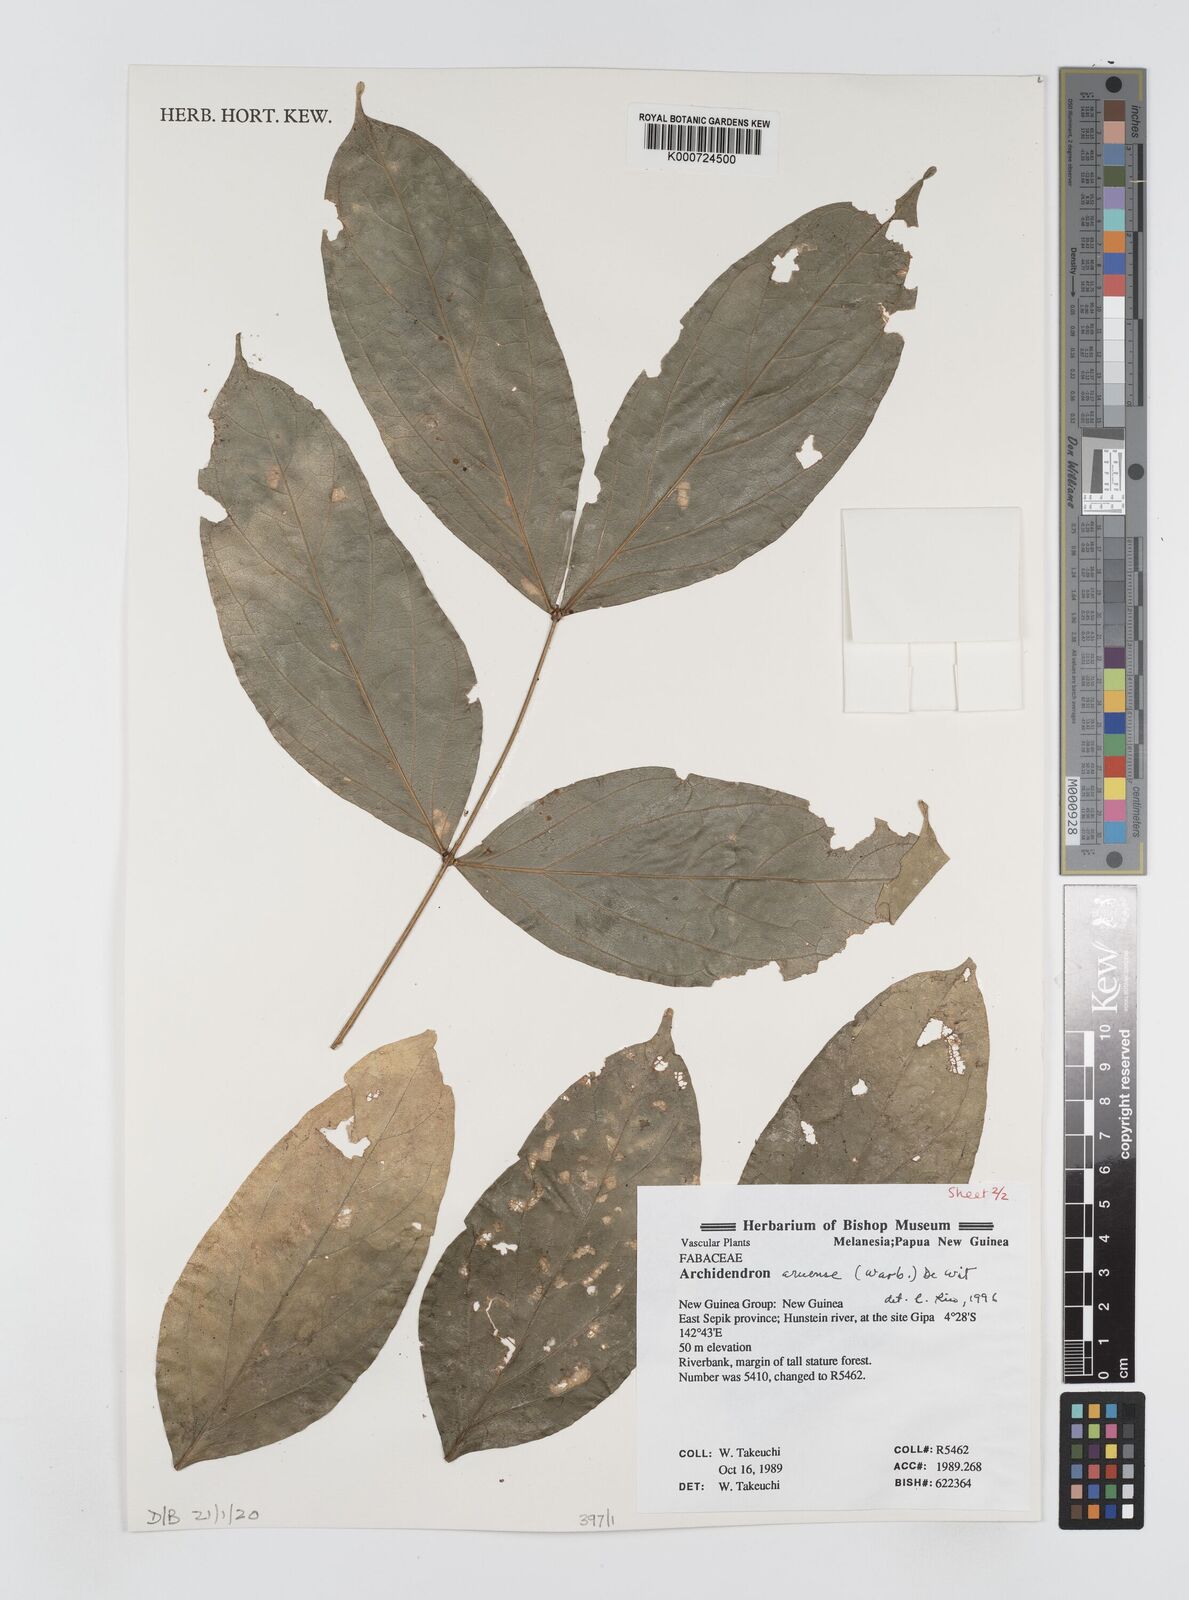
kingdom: Plantae
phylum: Tracheophyta
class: Magnoliopsida
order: Fabales
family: Fabaceae
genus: Archidendron
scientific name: Archidendron aruense
